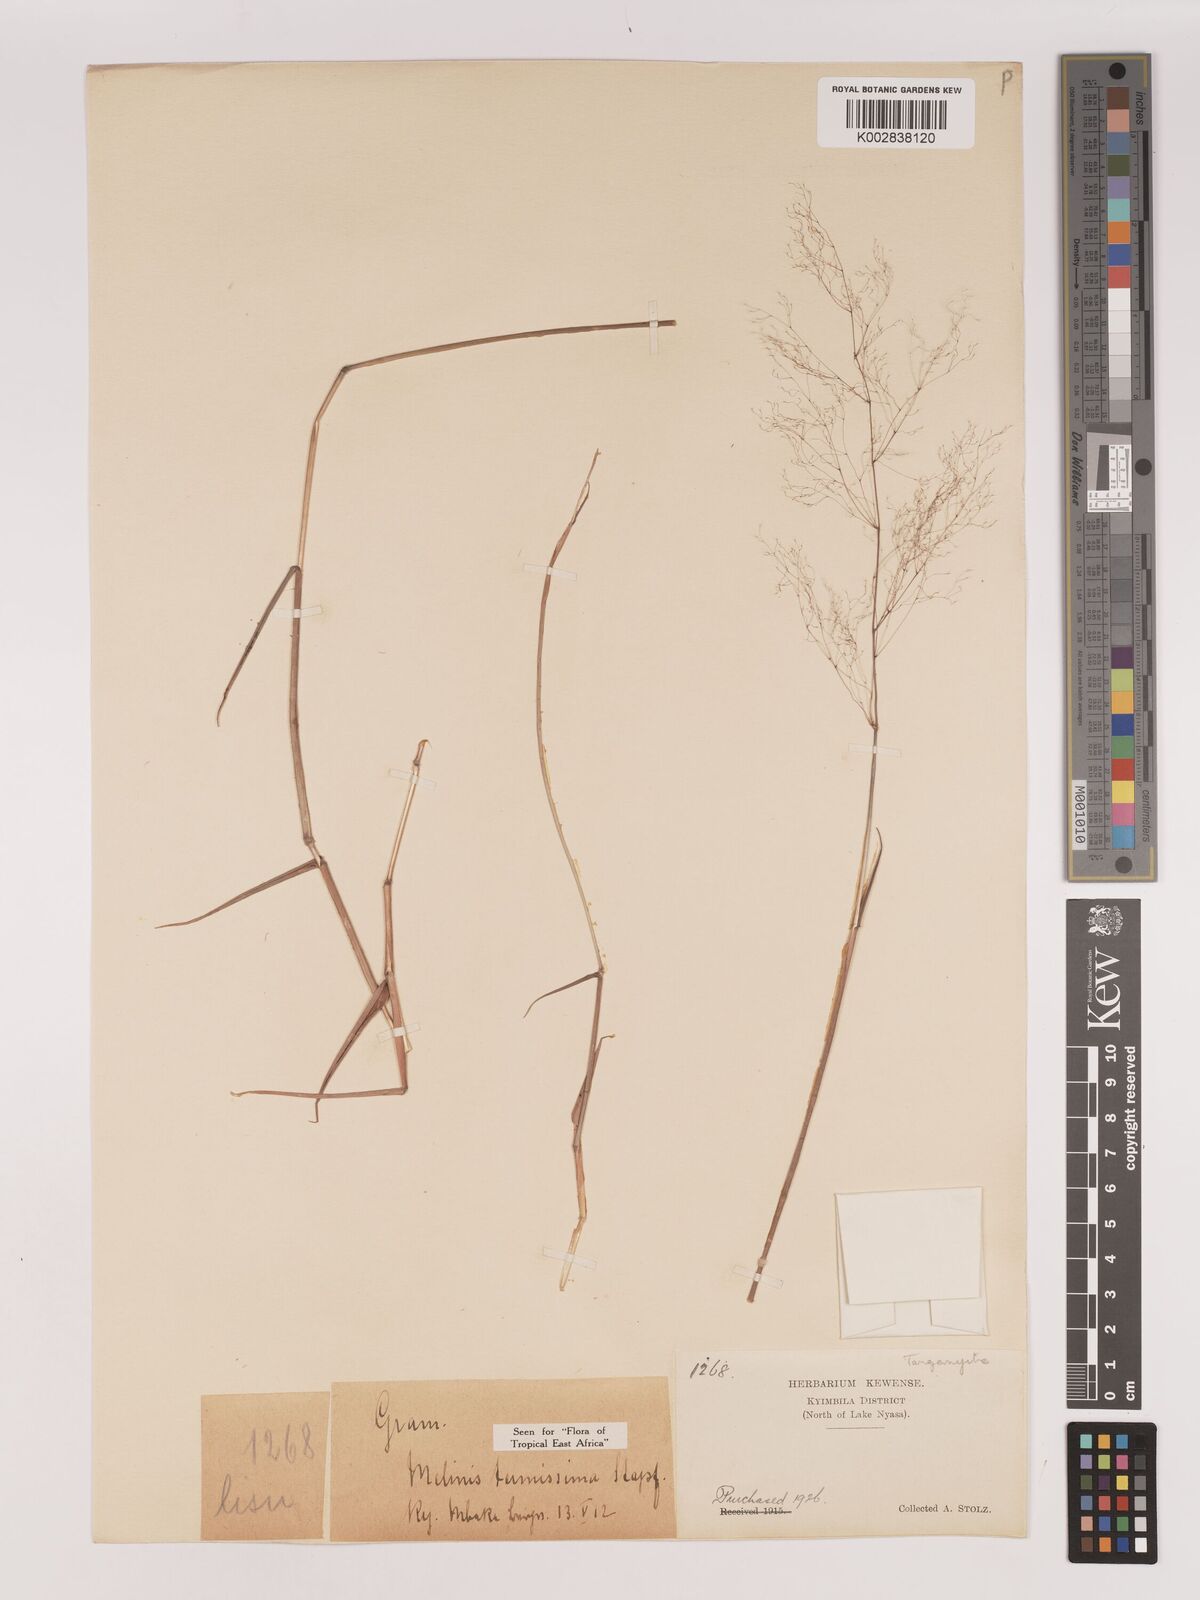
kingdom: Plantae
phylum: Tracheophyta
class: Liliopsida
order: Poales
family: Poaceae
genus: Melinis
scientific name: Melinis tenuissima
